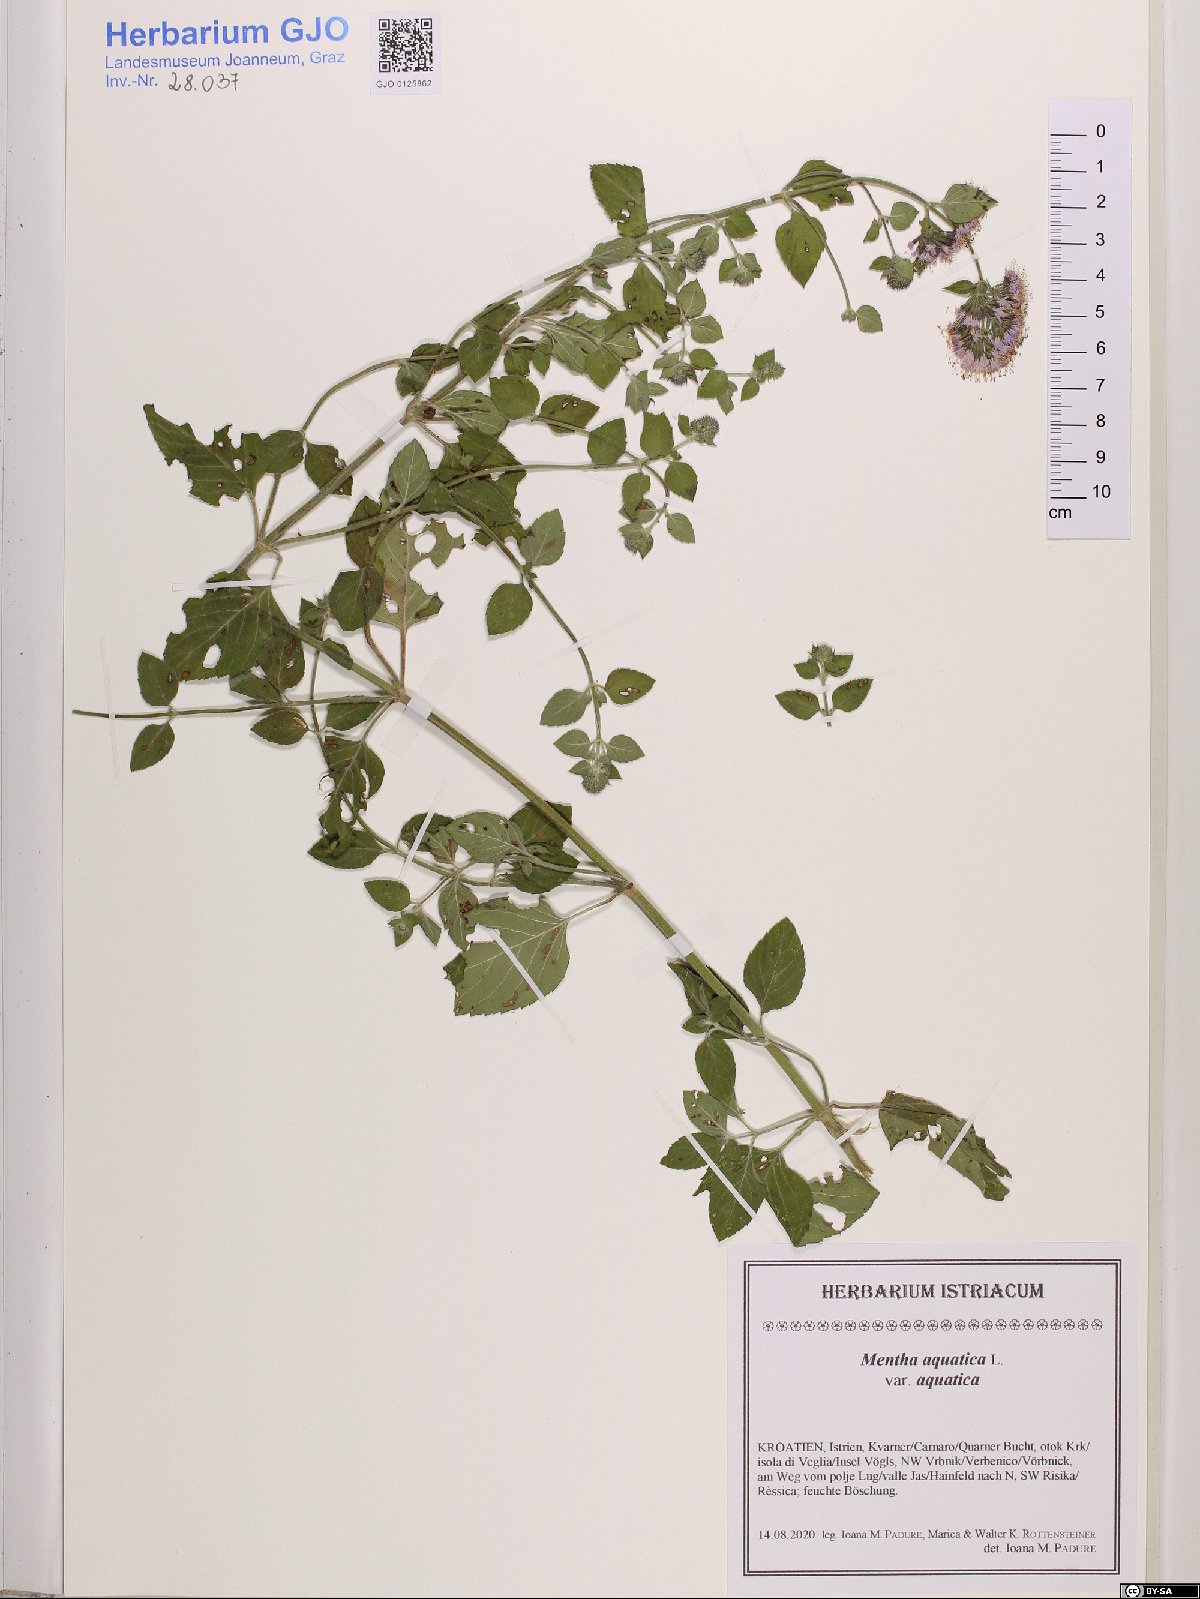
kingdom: Plantae
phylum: Tracheophyta
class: Magnoliopsida
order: Lamiales
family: Lamiaceae
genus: Mentha
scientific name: Mentha aquatica
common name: Water mint
